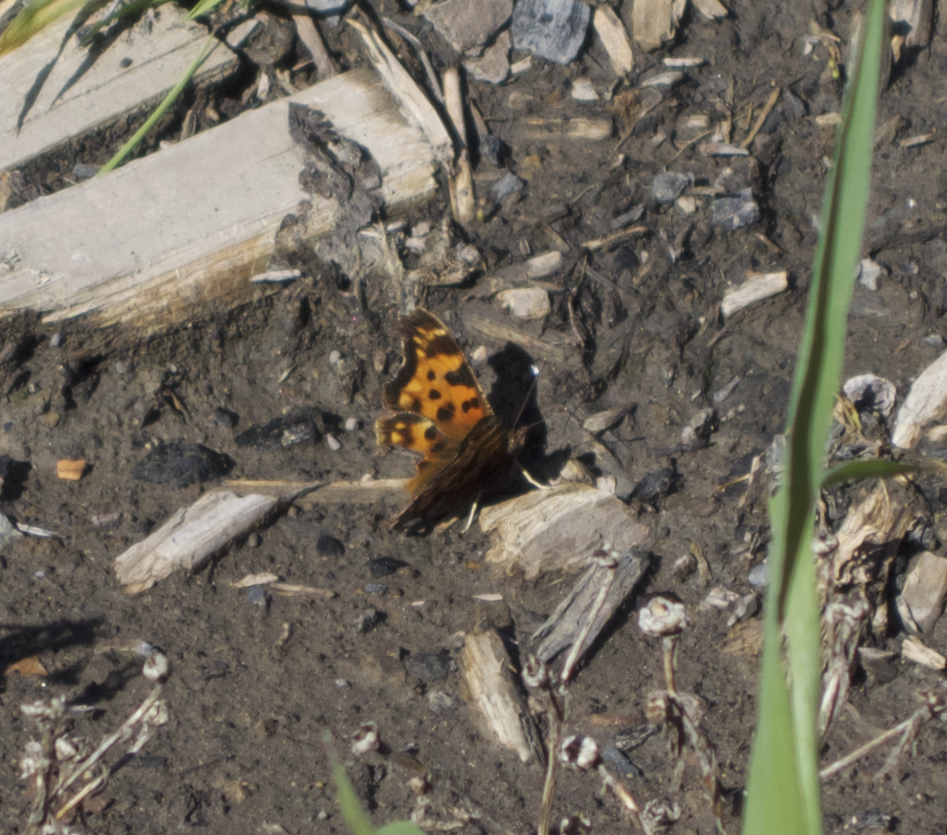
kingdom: Animalia
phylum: Arthropoda
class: Insecta
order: Lepidoptera
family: Nymphalidae
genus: Polygonia
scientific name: Polygonia progne
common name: Gray Comma
